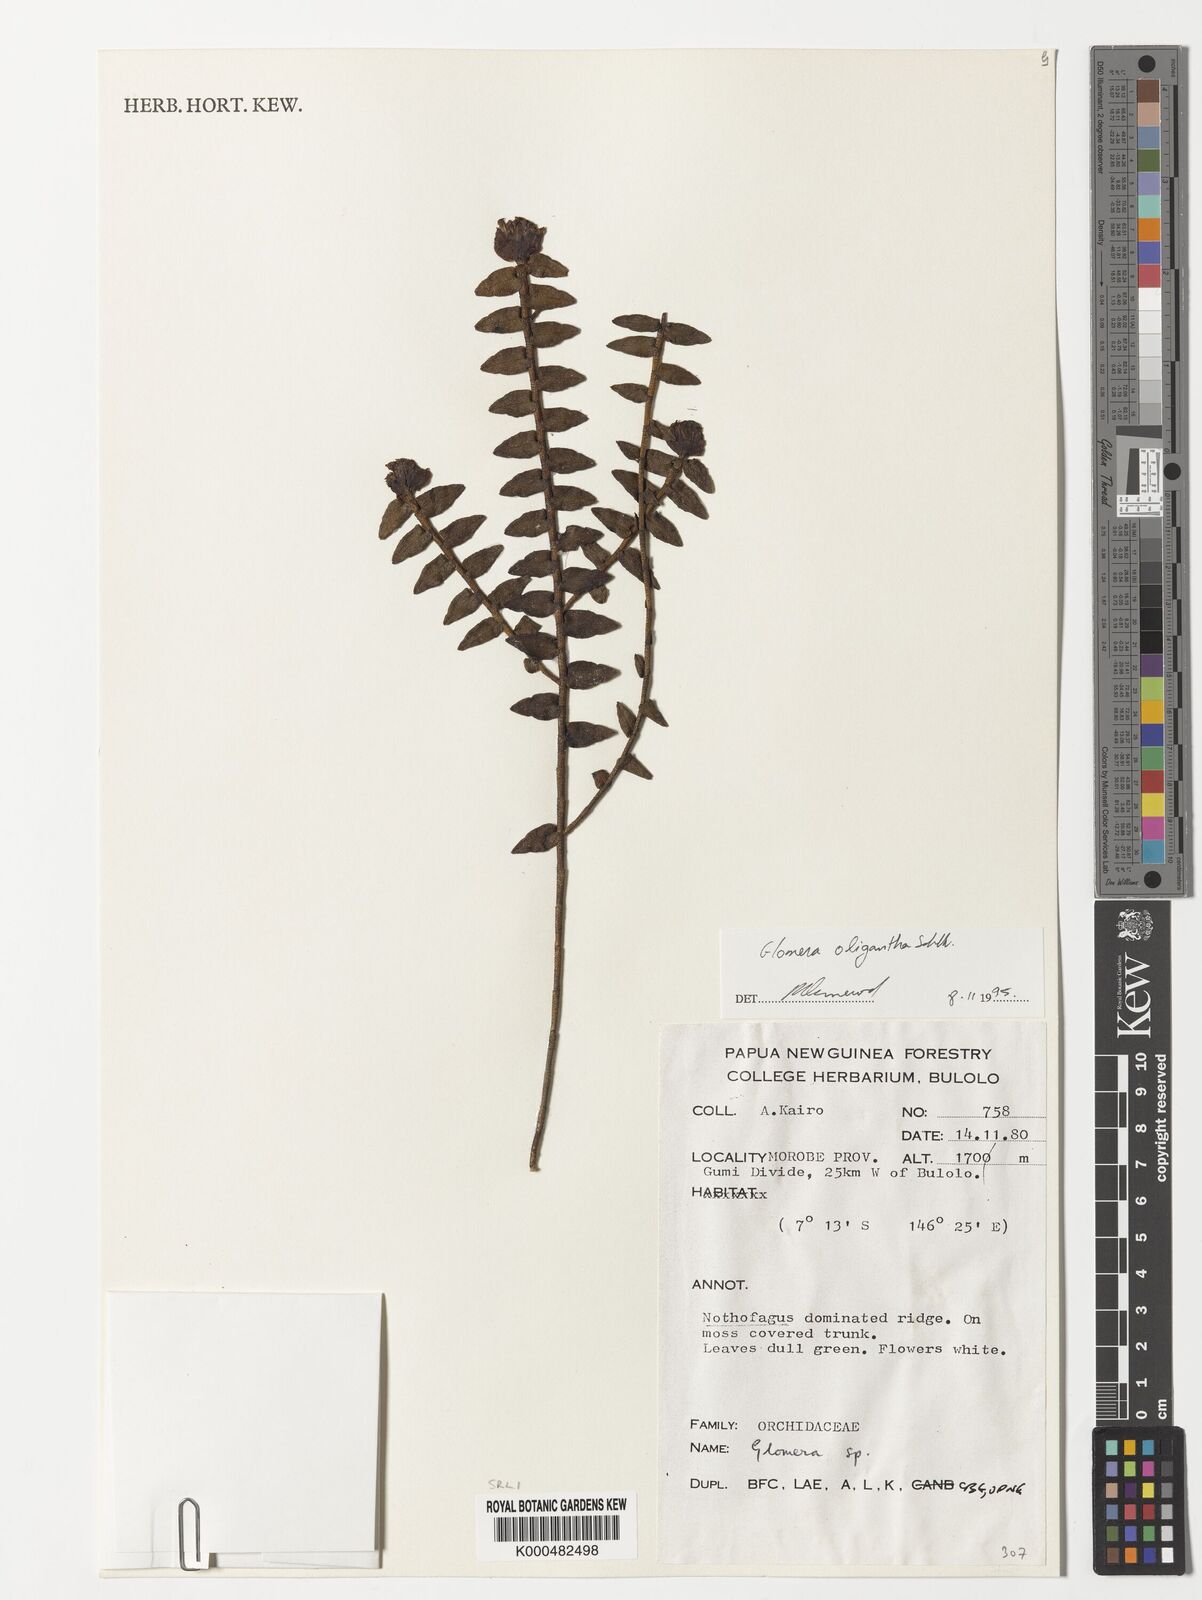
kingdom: Plantae
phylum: Tracheophyta
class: Liliopsida
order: Asparagales
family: Orchidaceae
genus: Glomera
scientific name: Glomera oligantha
